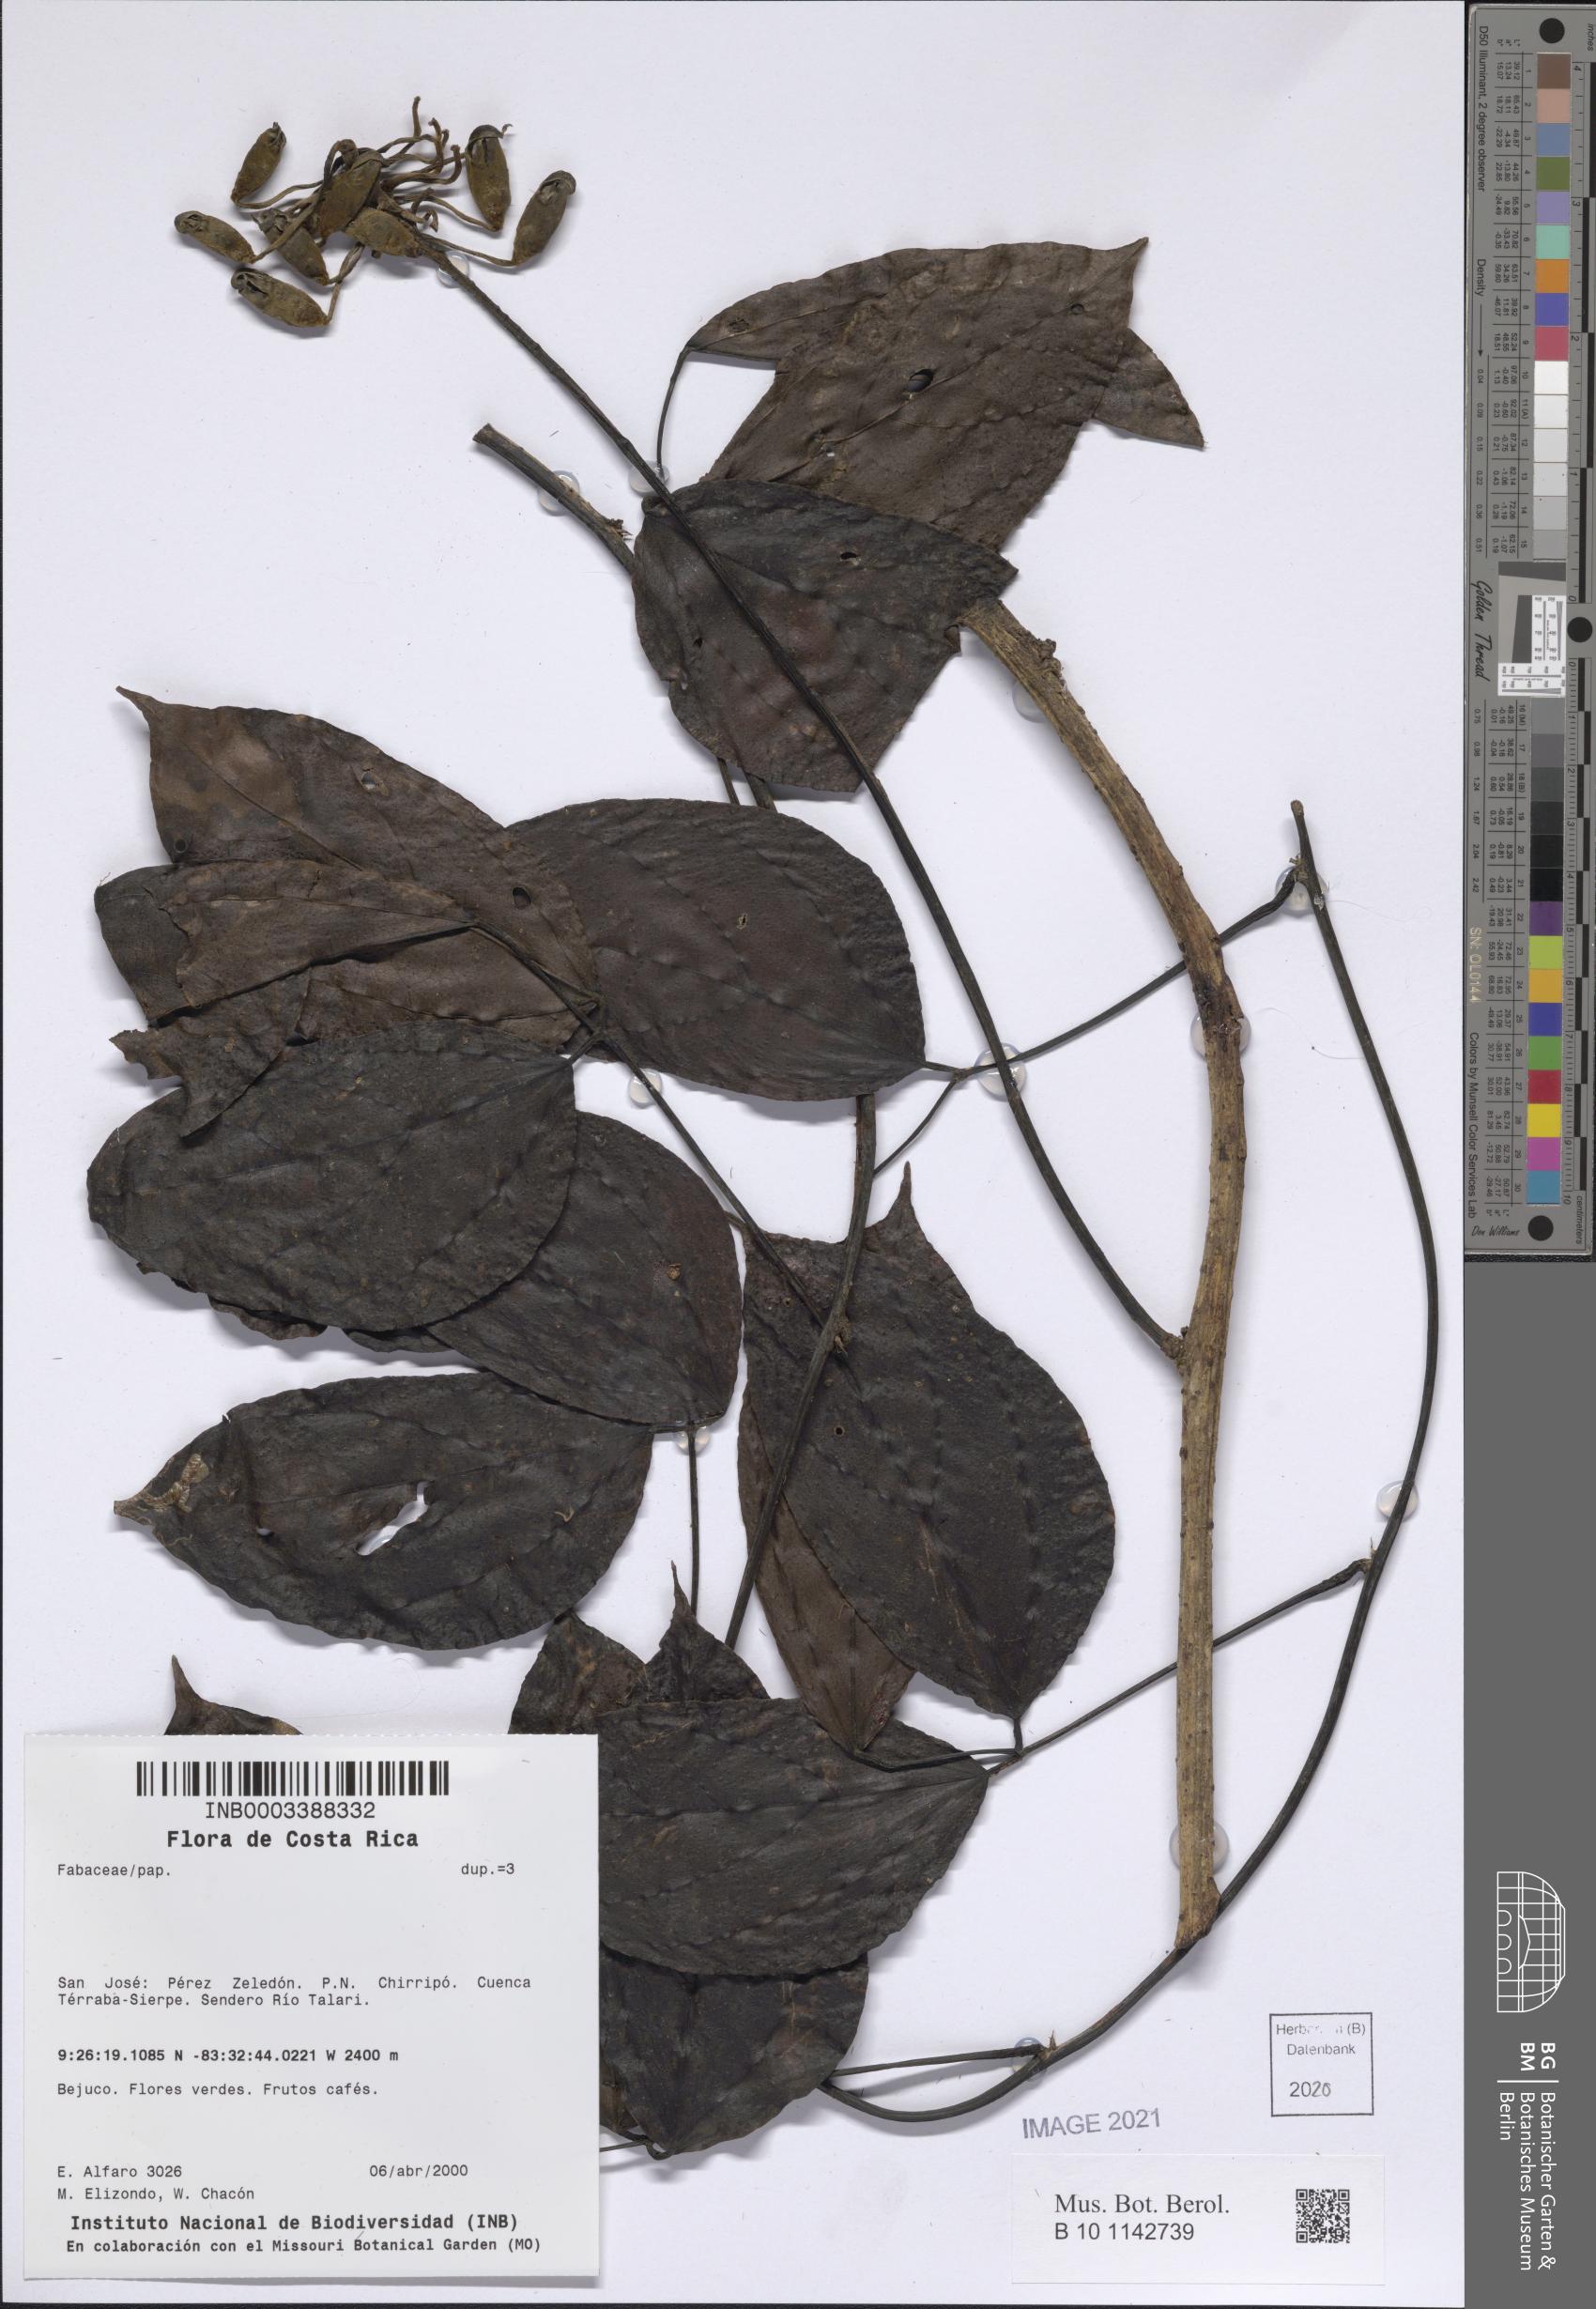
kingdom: Plantae
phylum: Tracheophyta
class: Magnoliopsida
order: Fabales
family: Fabaceae
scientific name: Fabaceae
